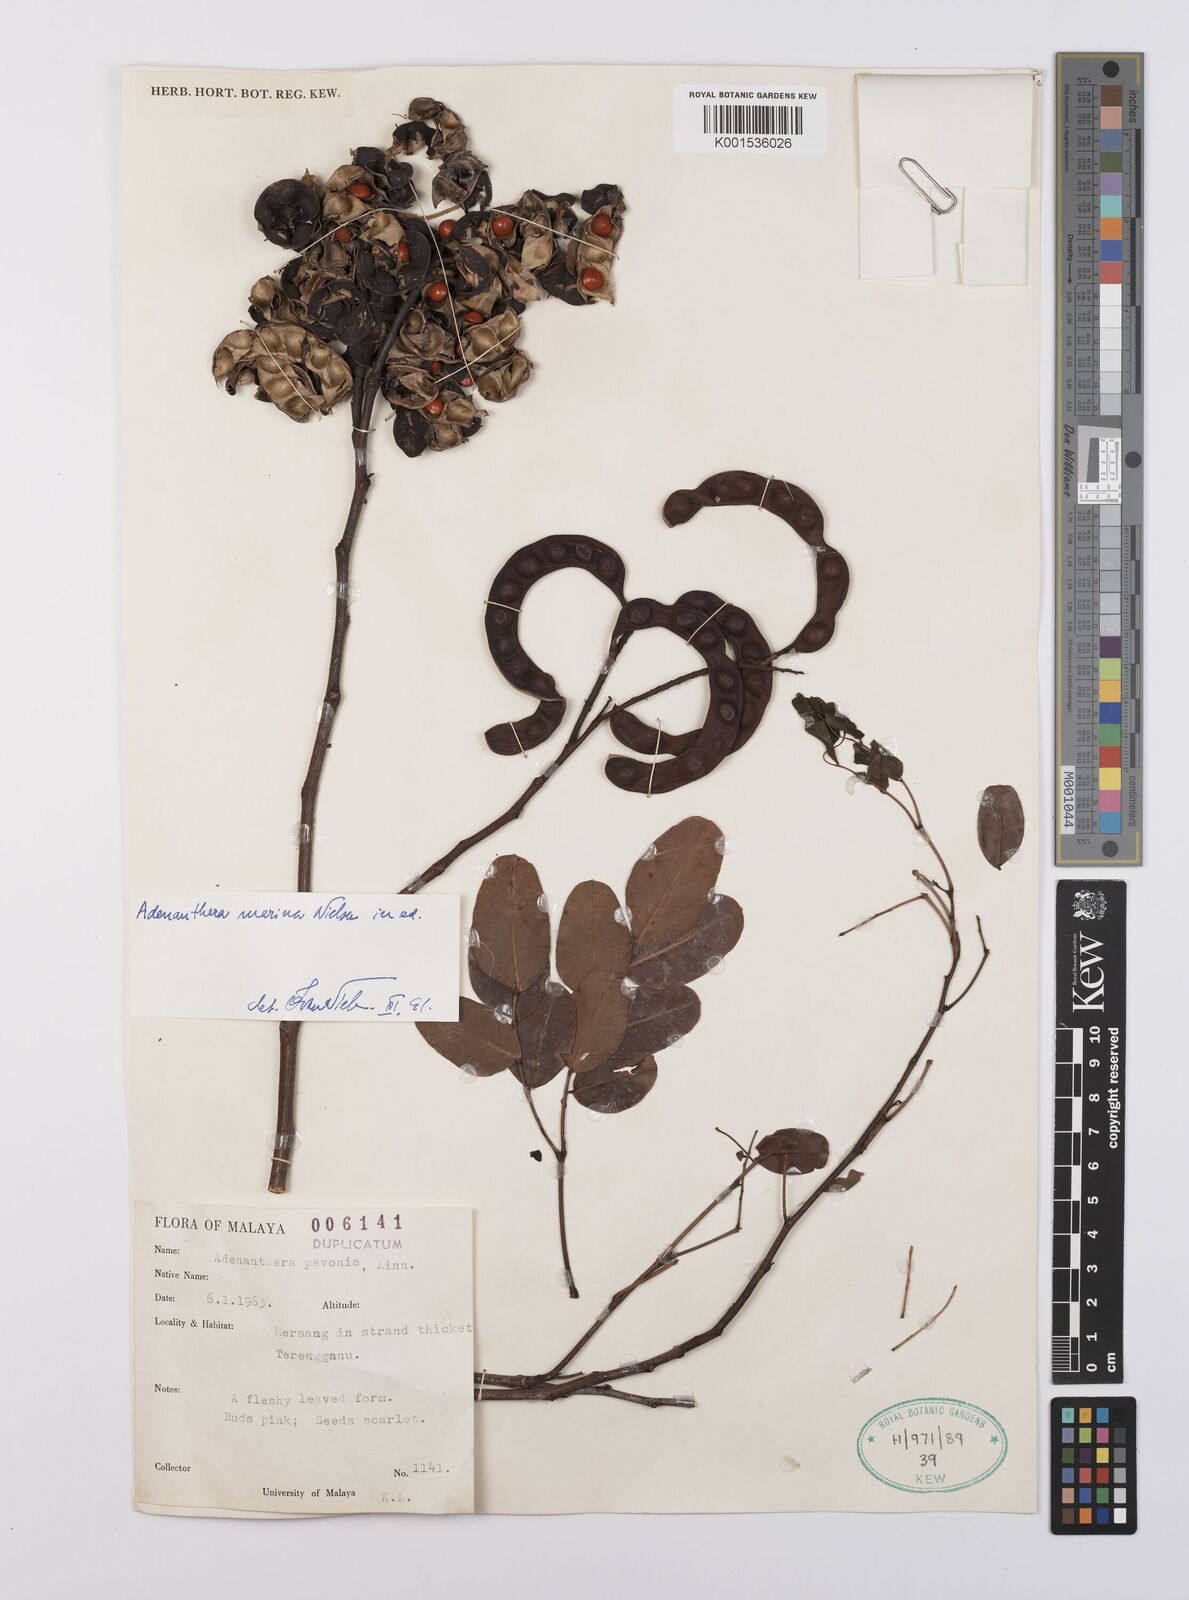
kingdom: Plantae
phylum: Tracheophyta
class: Magnoliopsida
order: Fabales
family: Fabaceae
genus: Adenanthera
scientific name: Adenanthera marina
